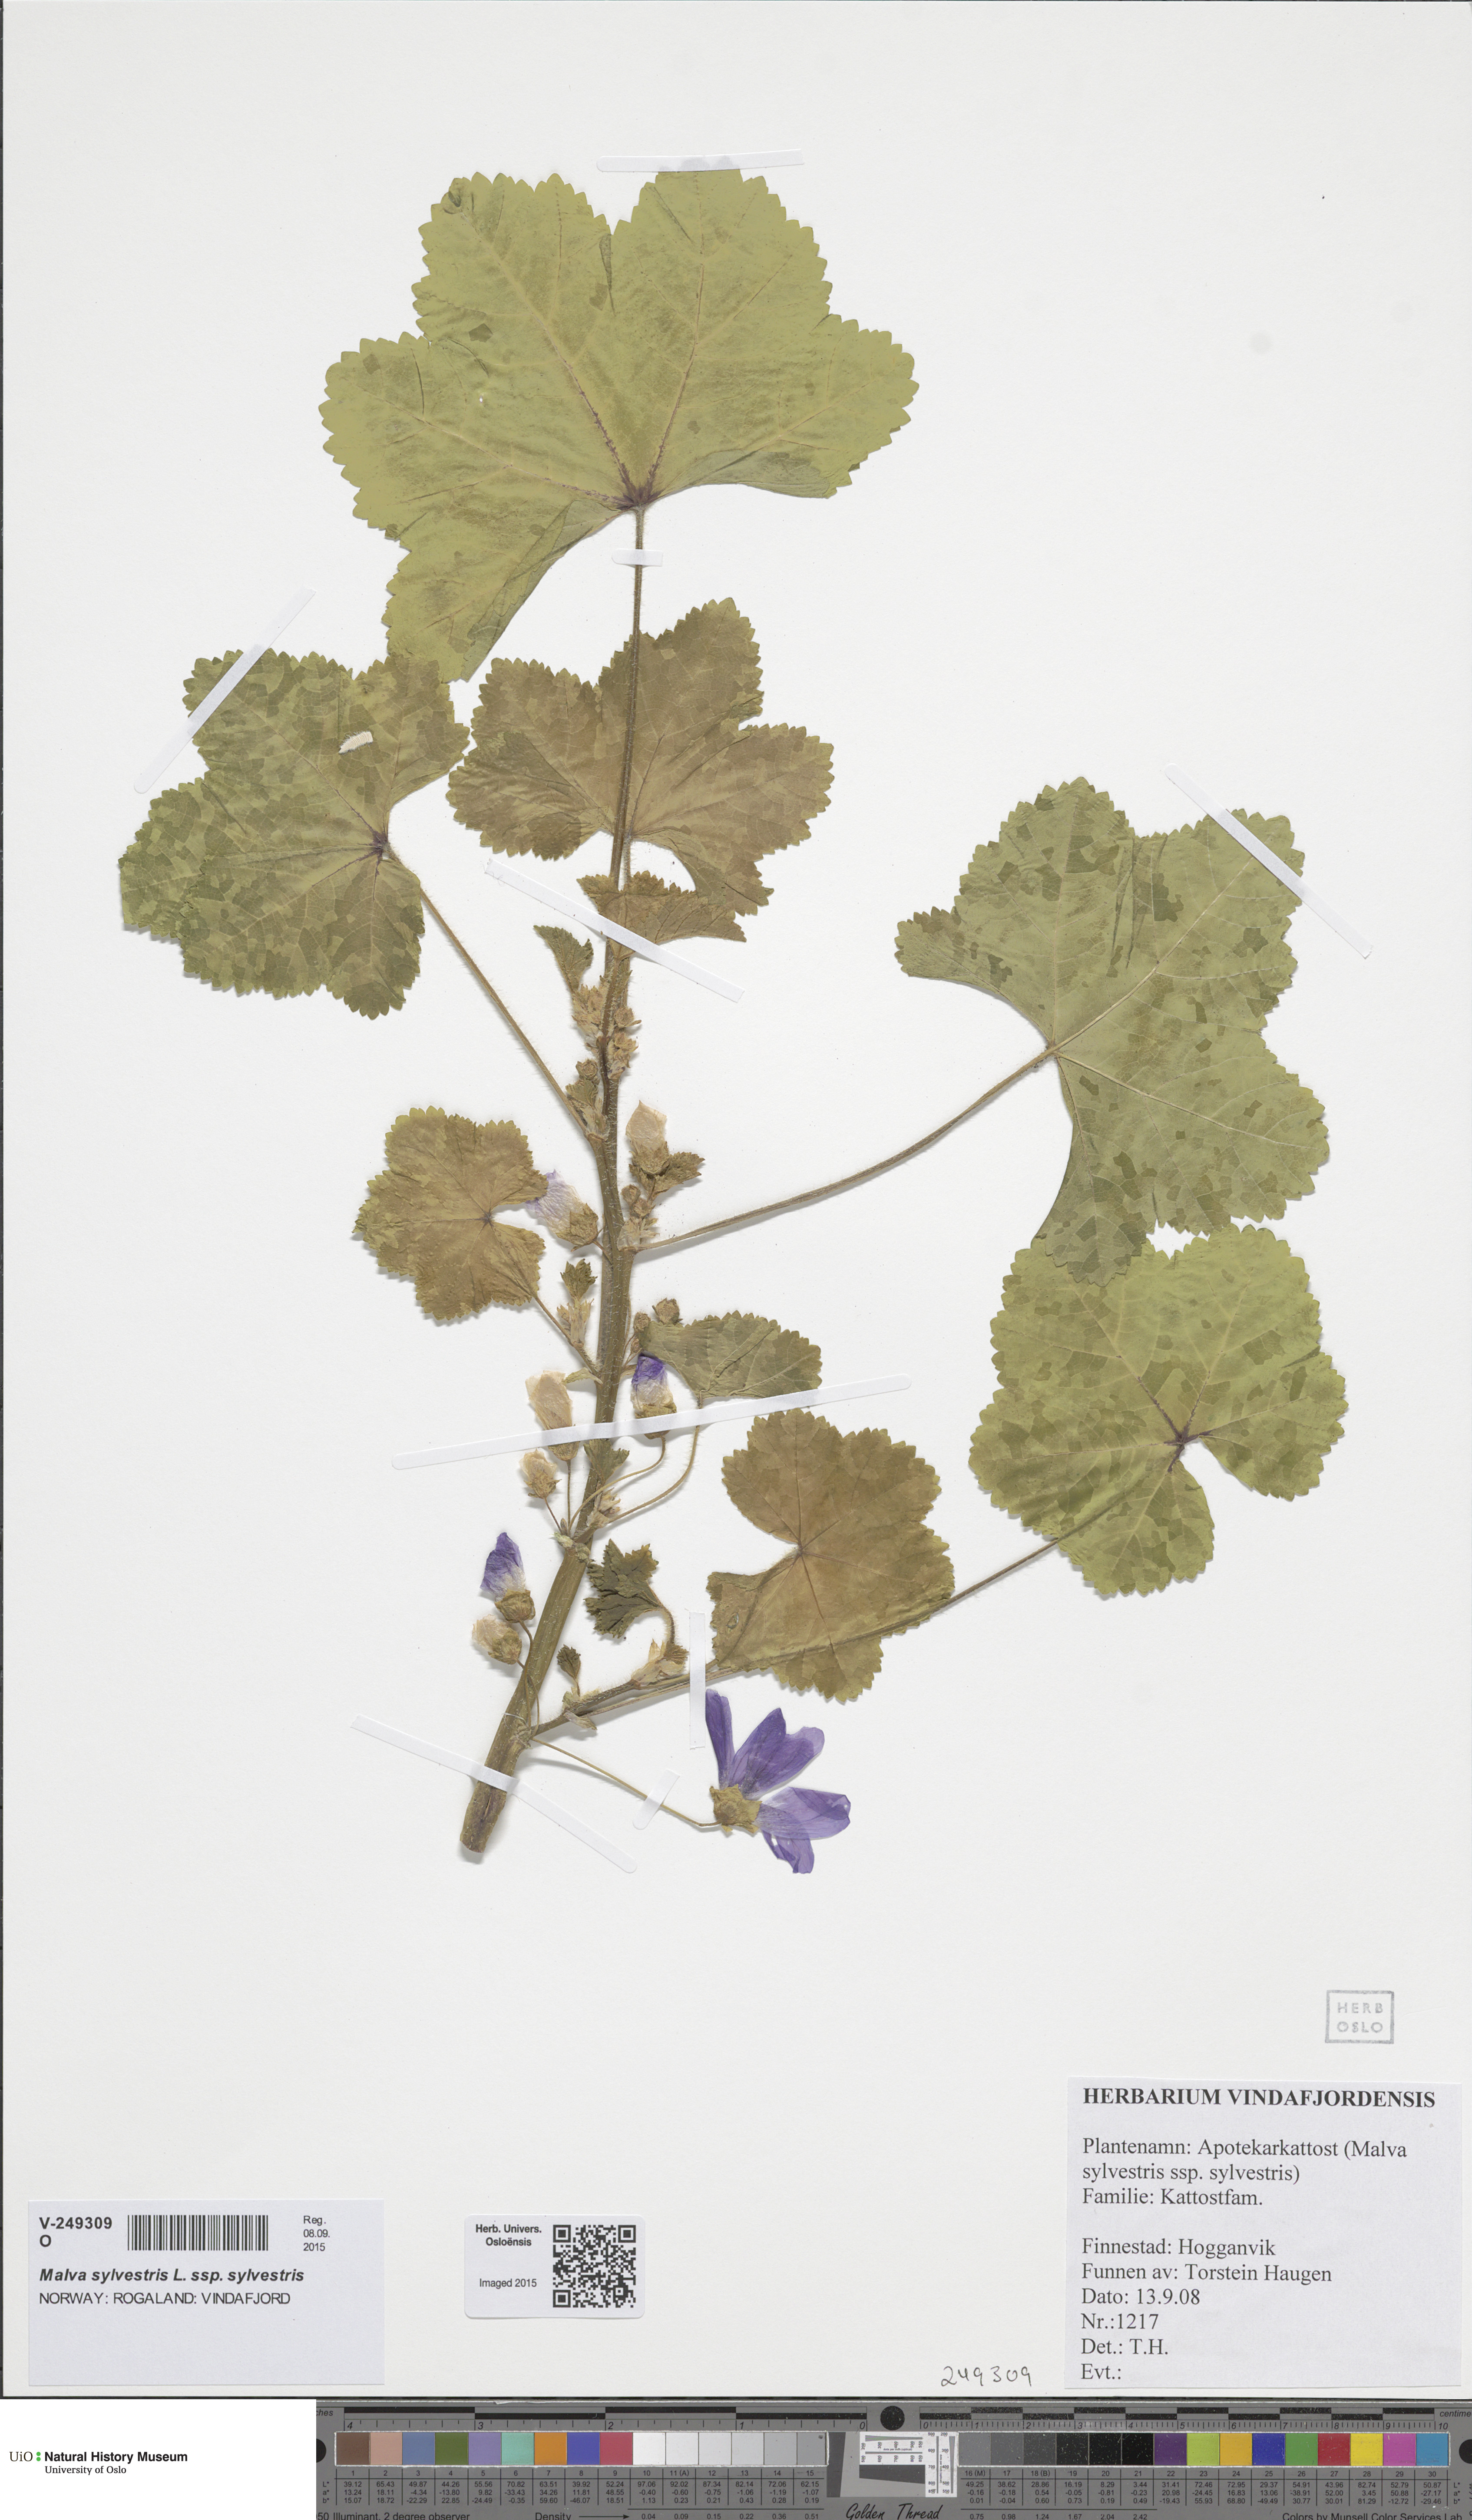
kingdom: Plantae
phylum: Tracheophyta
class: Magnoliopsida
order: Malvales
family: Malvaceae
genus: Malva
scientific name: Malva sylvestris
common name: Common mallow
